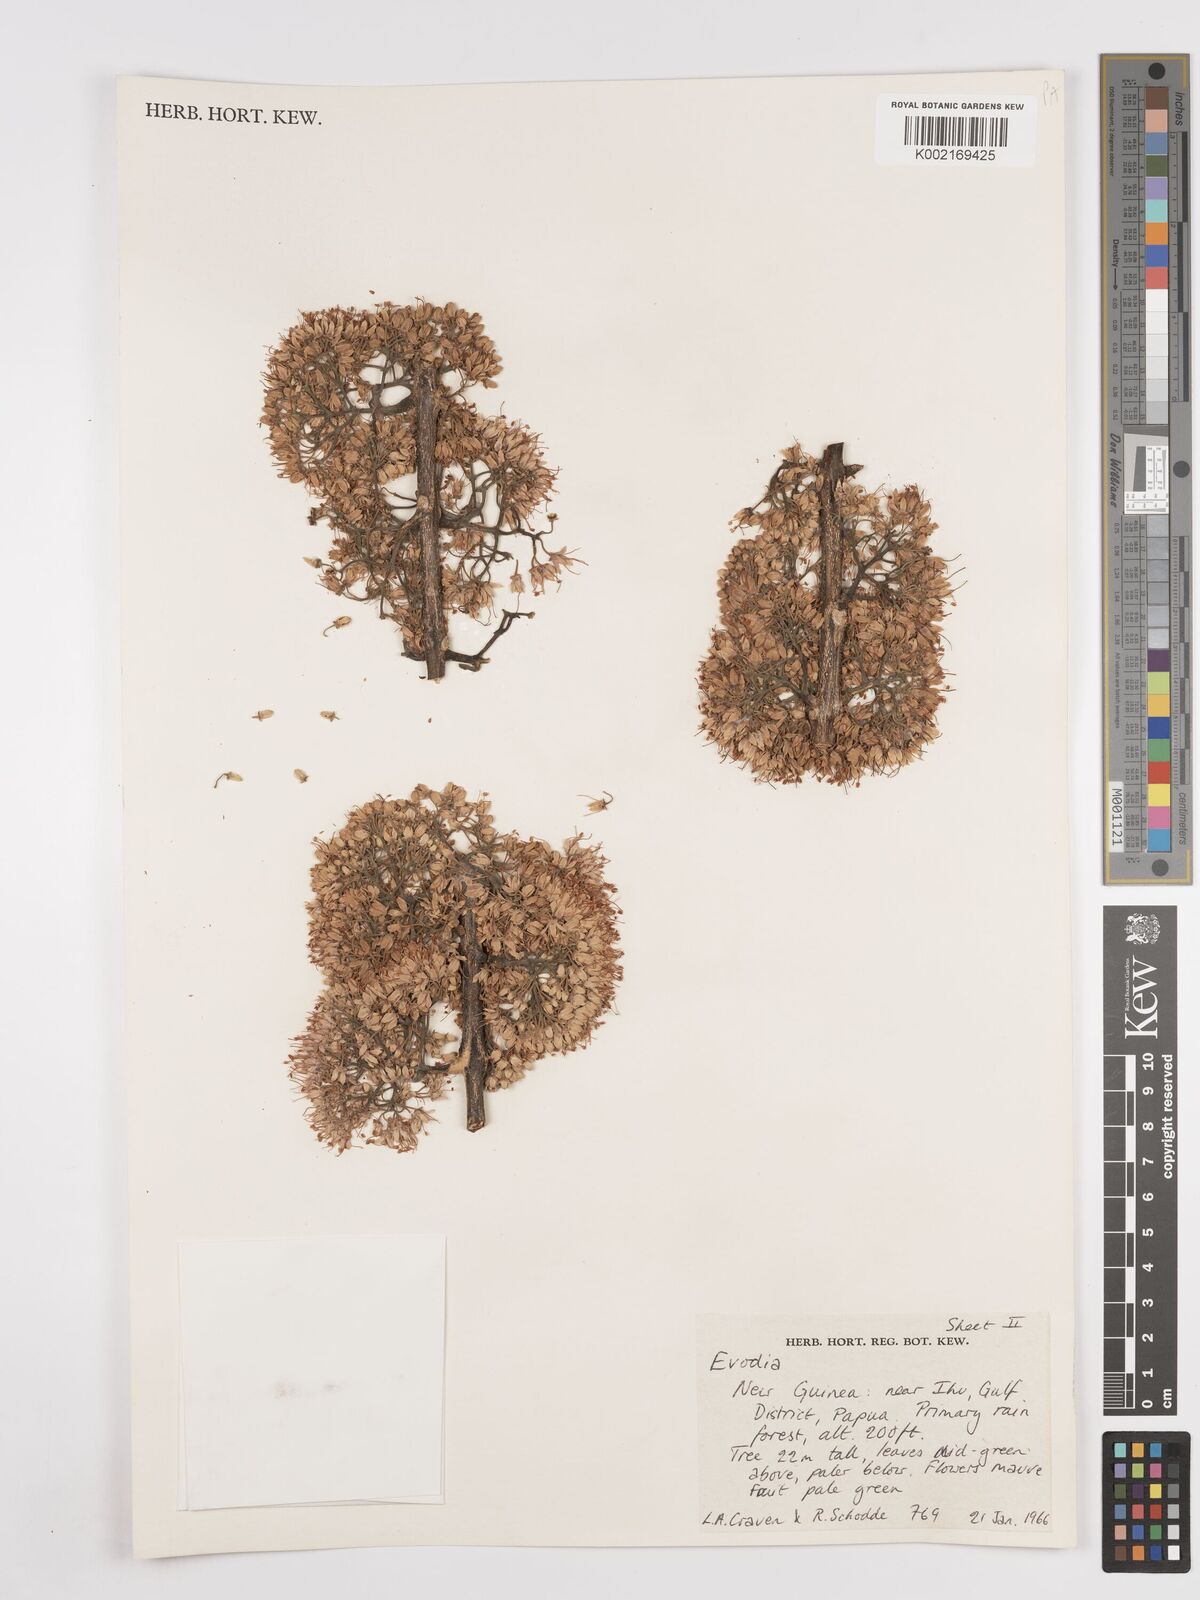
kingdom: Plantae
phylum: Tracheophyta
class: Magnoliopsida
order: Sapindales
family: Rutaceae
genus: Euodia
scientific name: Euodia
